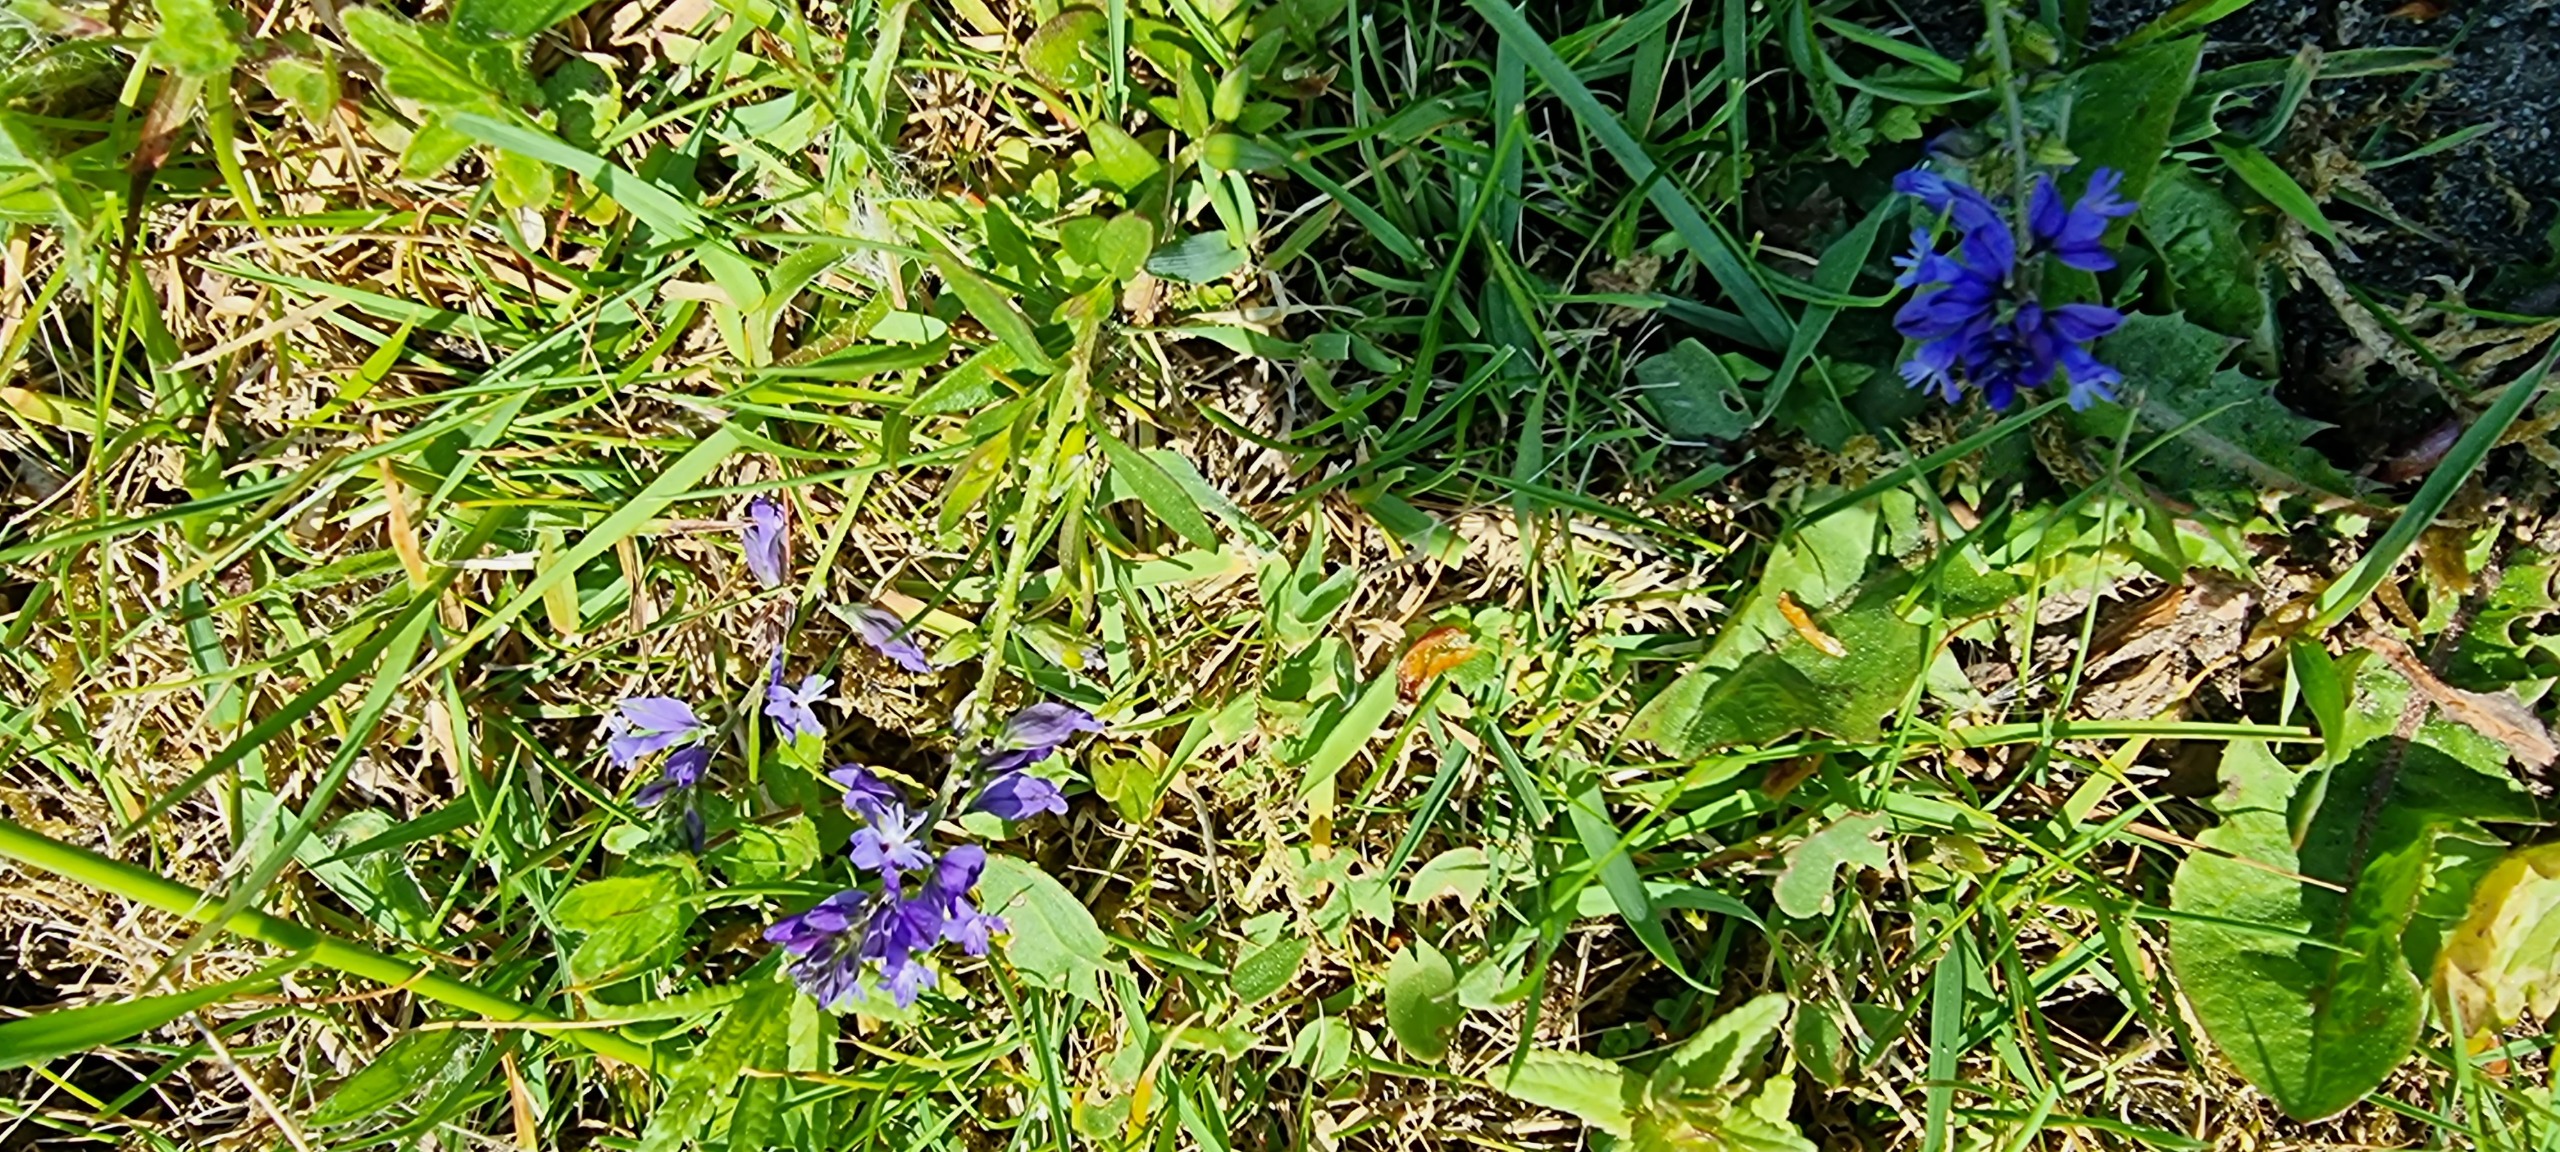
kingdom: Plantae
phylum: Tracheophyta
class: Magnoliopsida
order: Fabales
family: Polygalaceae
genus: Polygala
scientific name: Polygala vulgaris
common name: Almindelig mælkeurt
